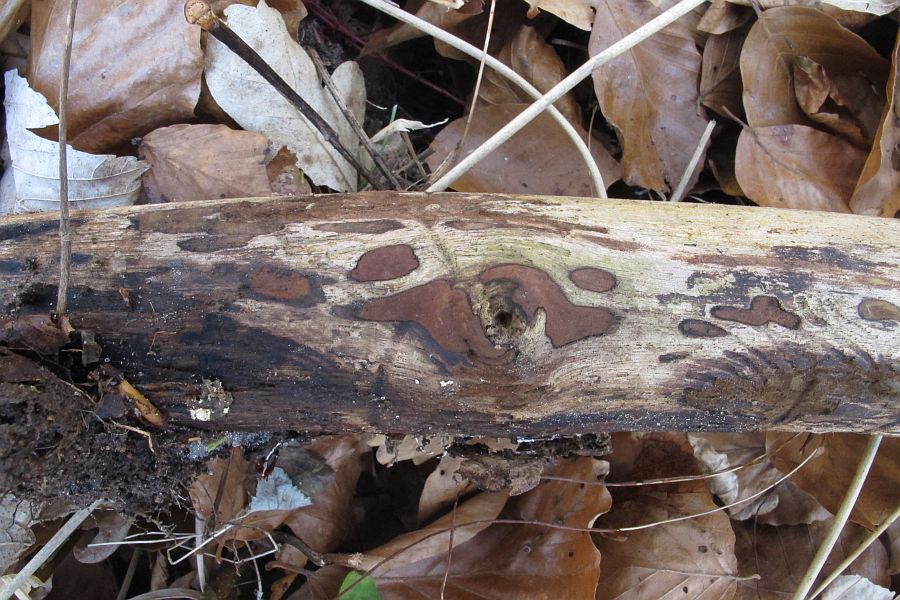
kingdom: Fungi
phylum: Ascomycota
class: Sordariomycetes
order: Xylariales
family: Hypoxylaceae
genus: Hypoxylon
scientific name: Hypoxylon petriniae
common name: nedsænket kulbær
